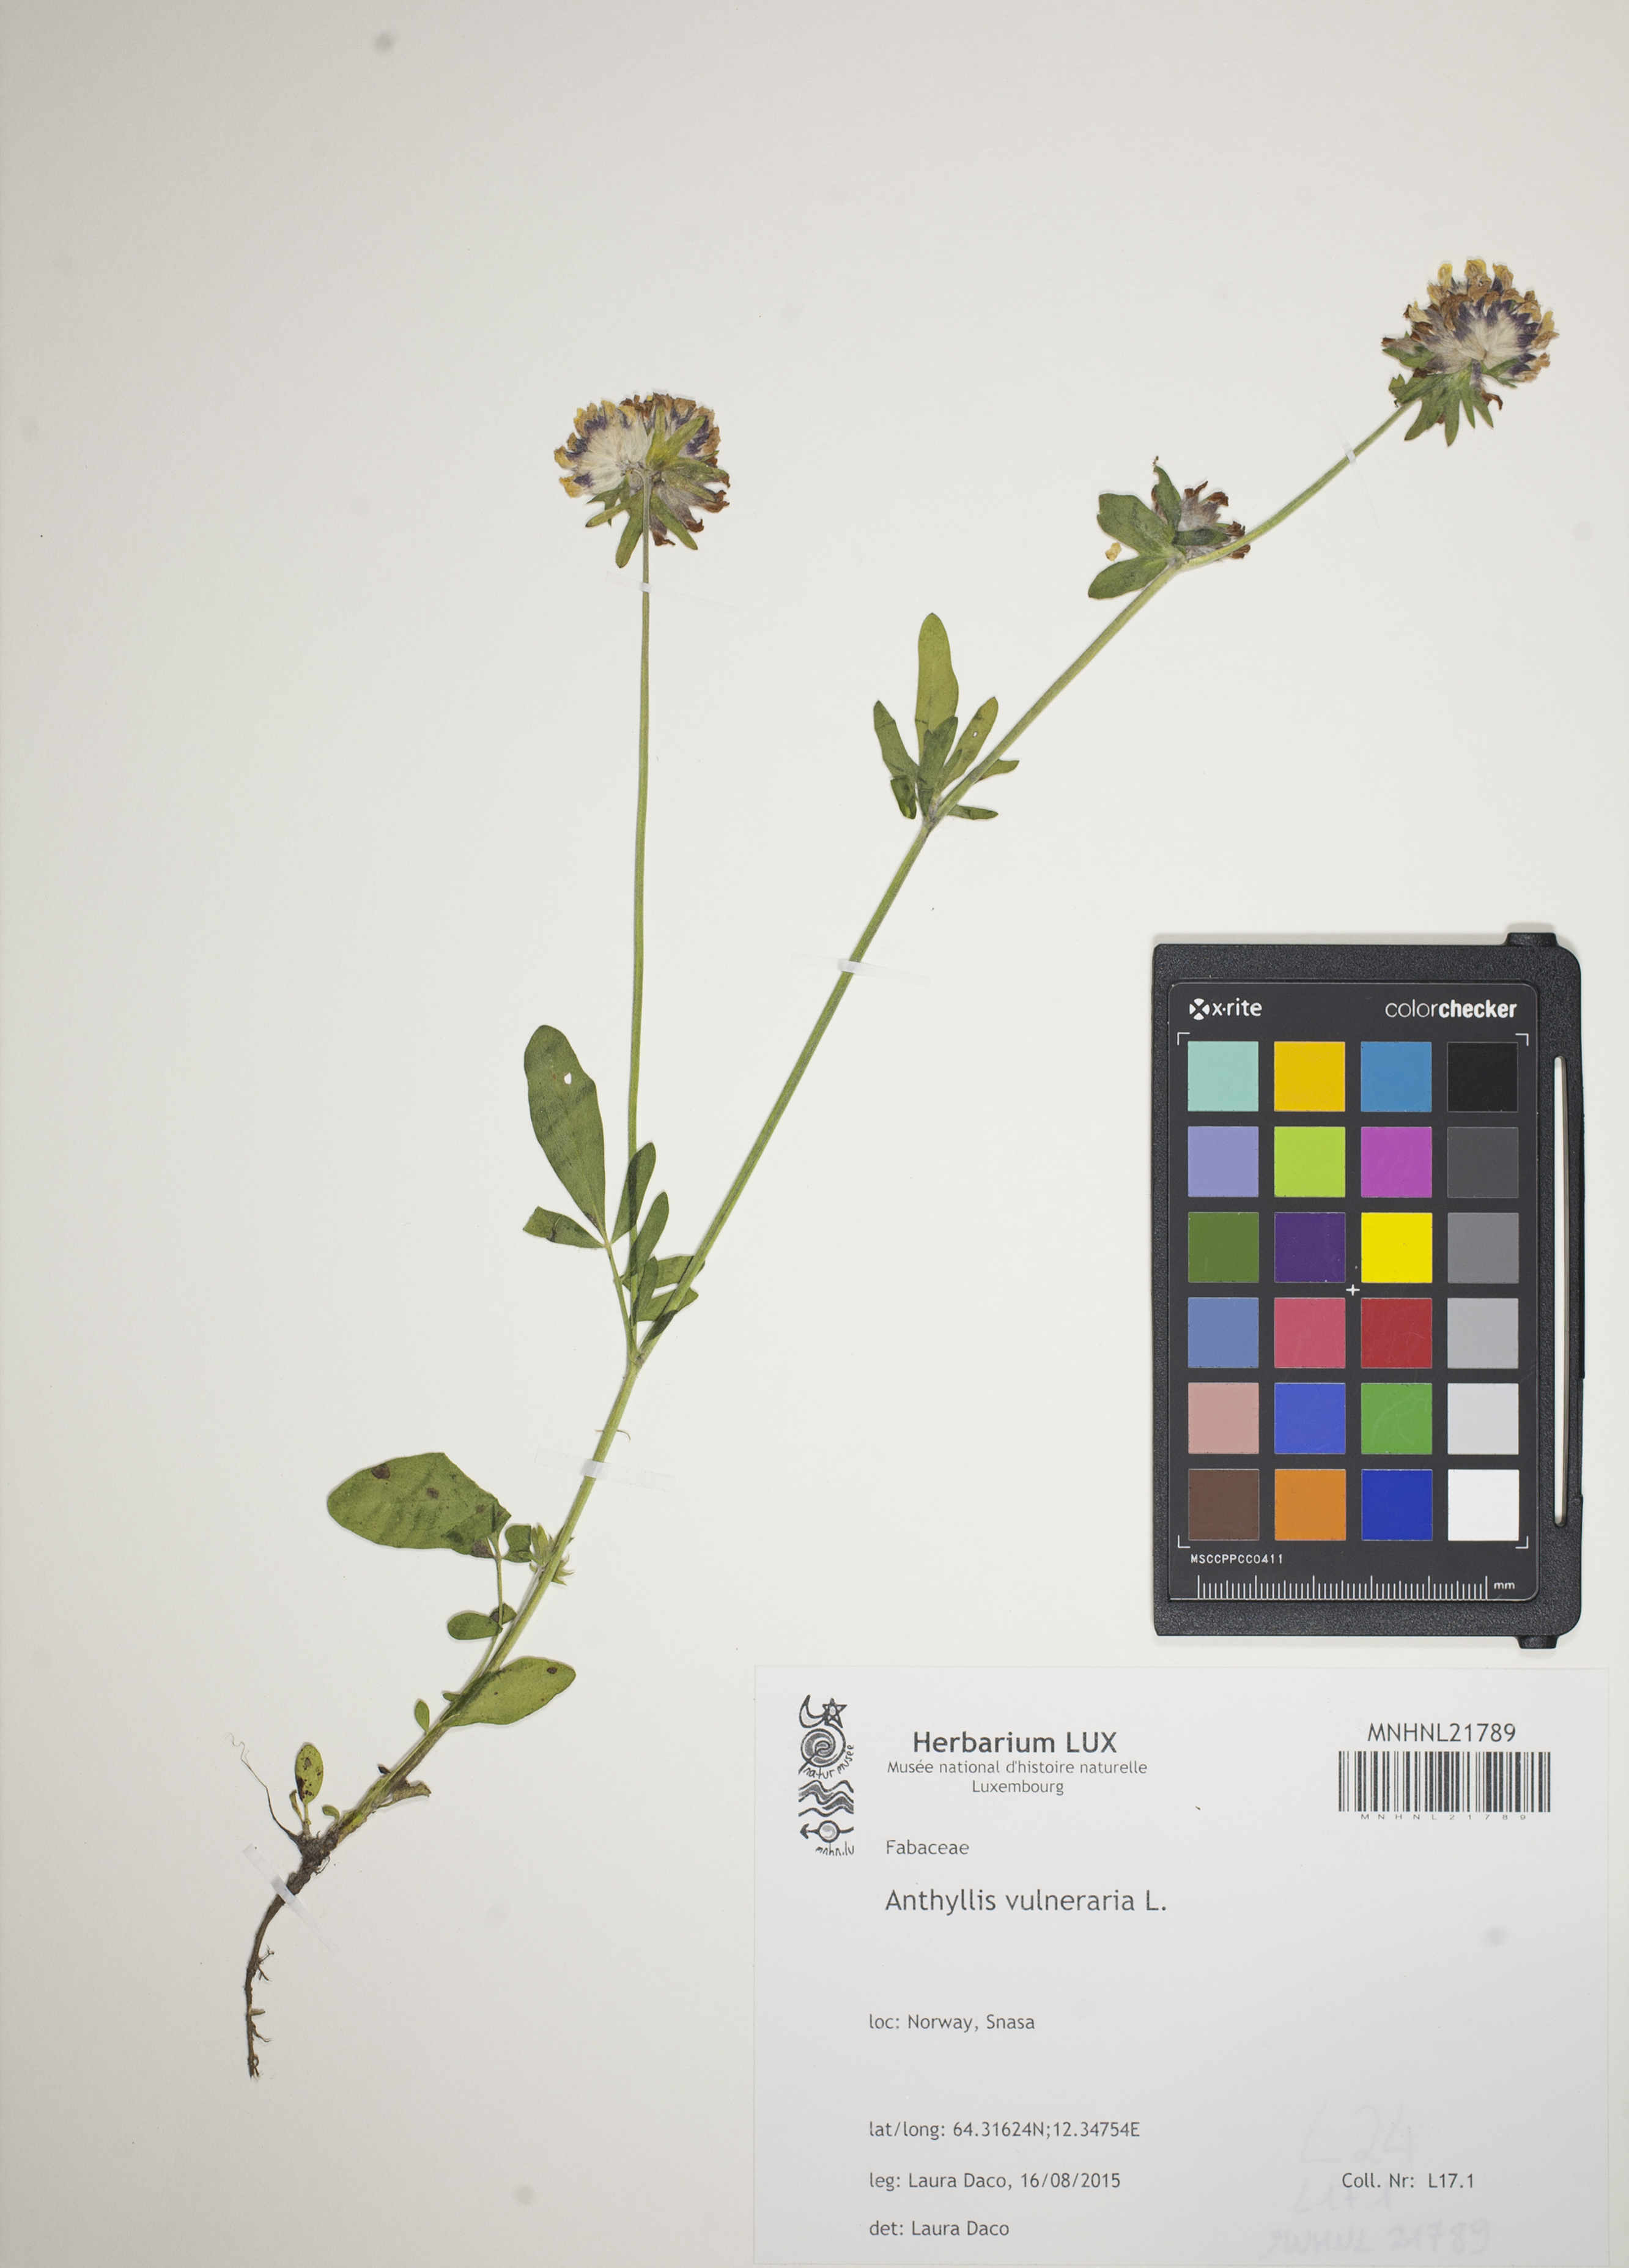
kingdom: Plantae
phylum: Tracheophyta
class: Magnoliopsida
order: Fabales
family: Fabaceae
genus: Anthyllis
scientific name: Anthyllis vulneraria
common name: Kidney vetch
